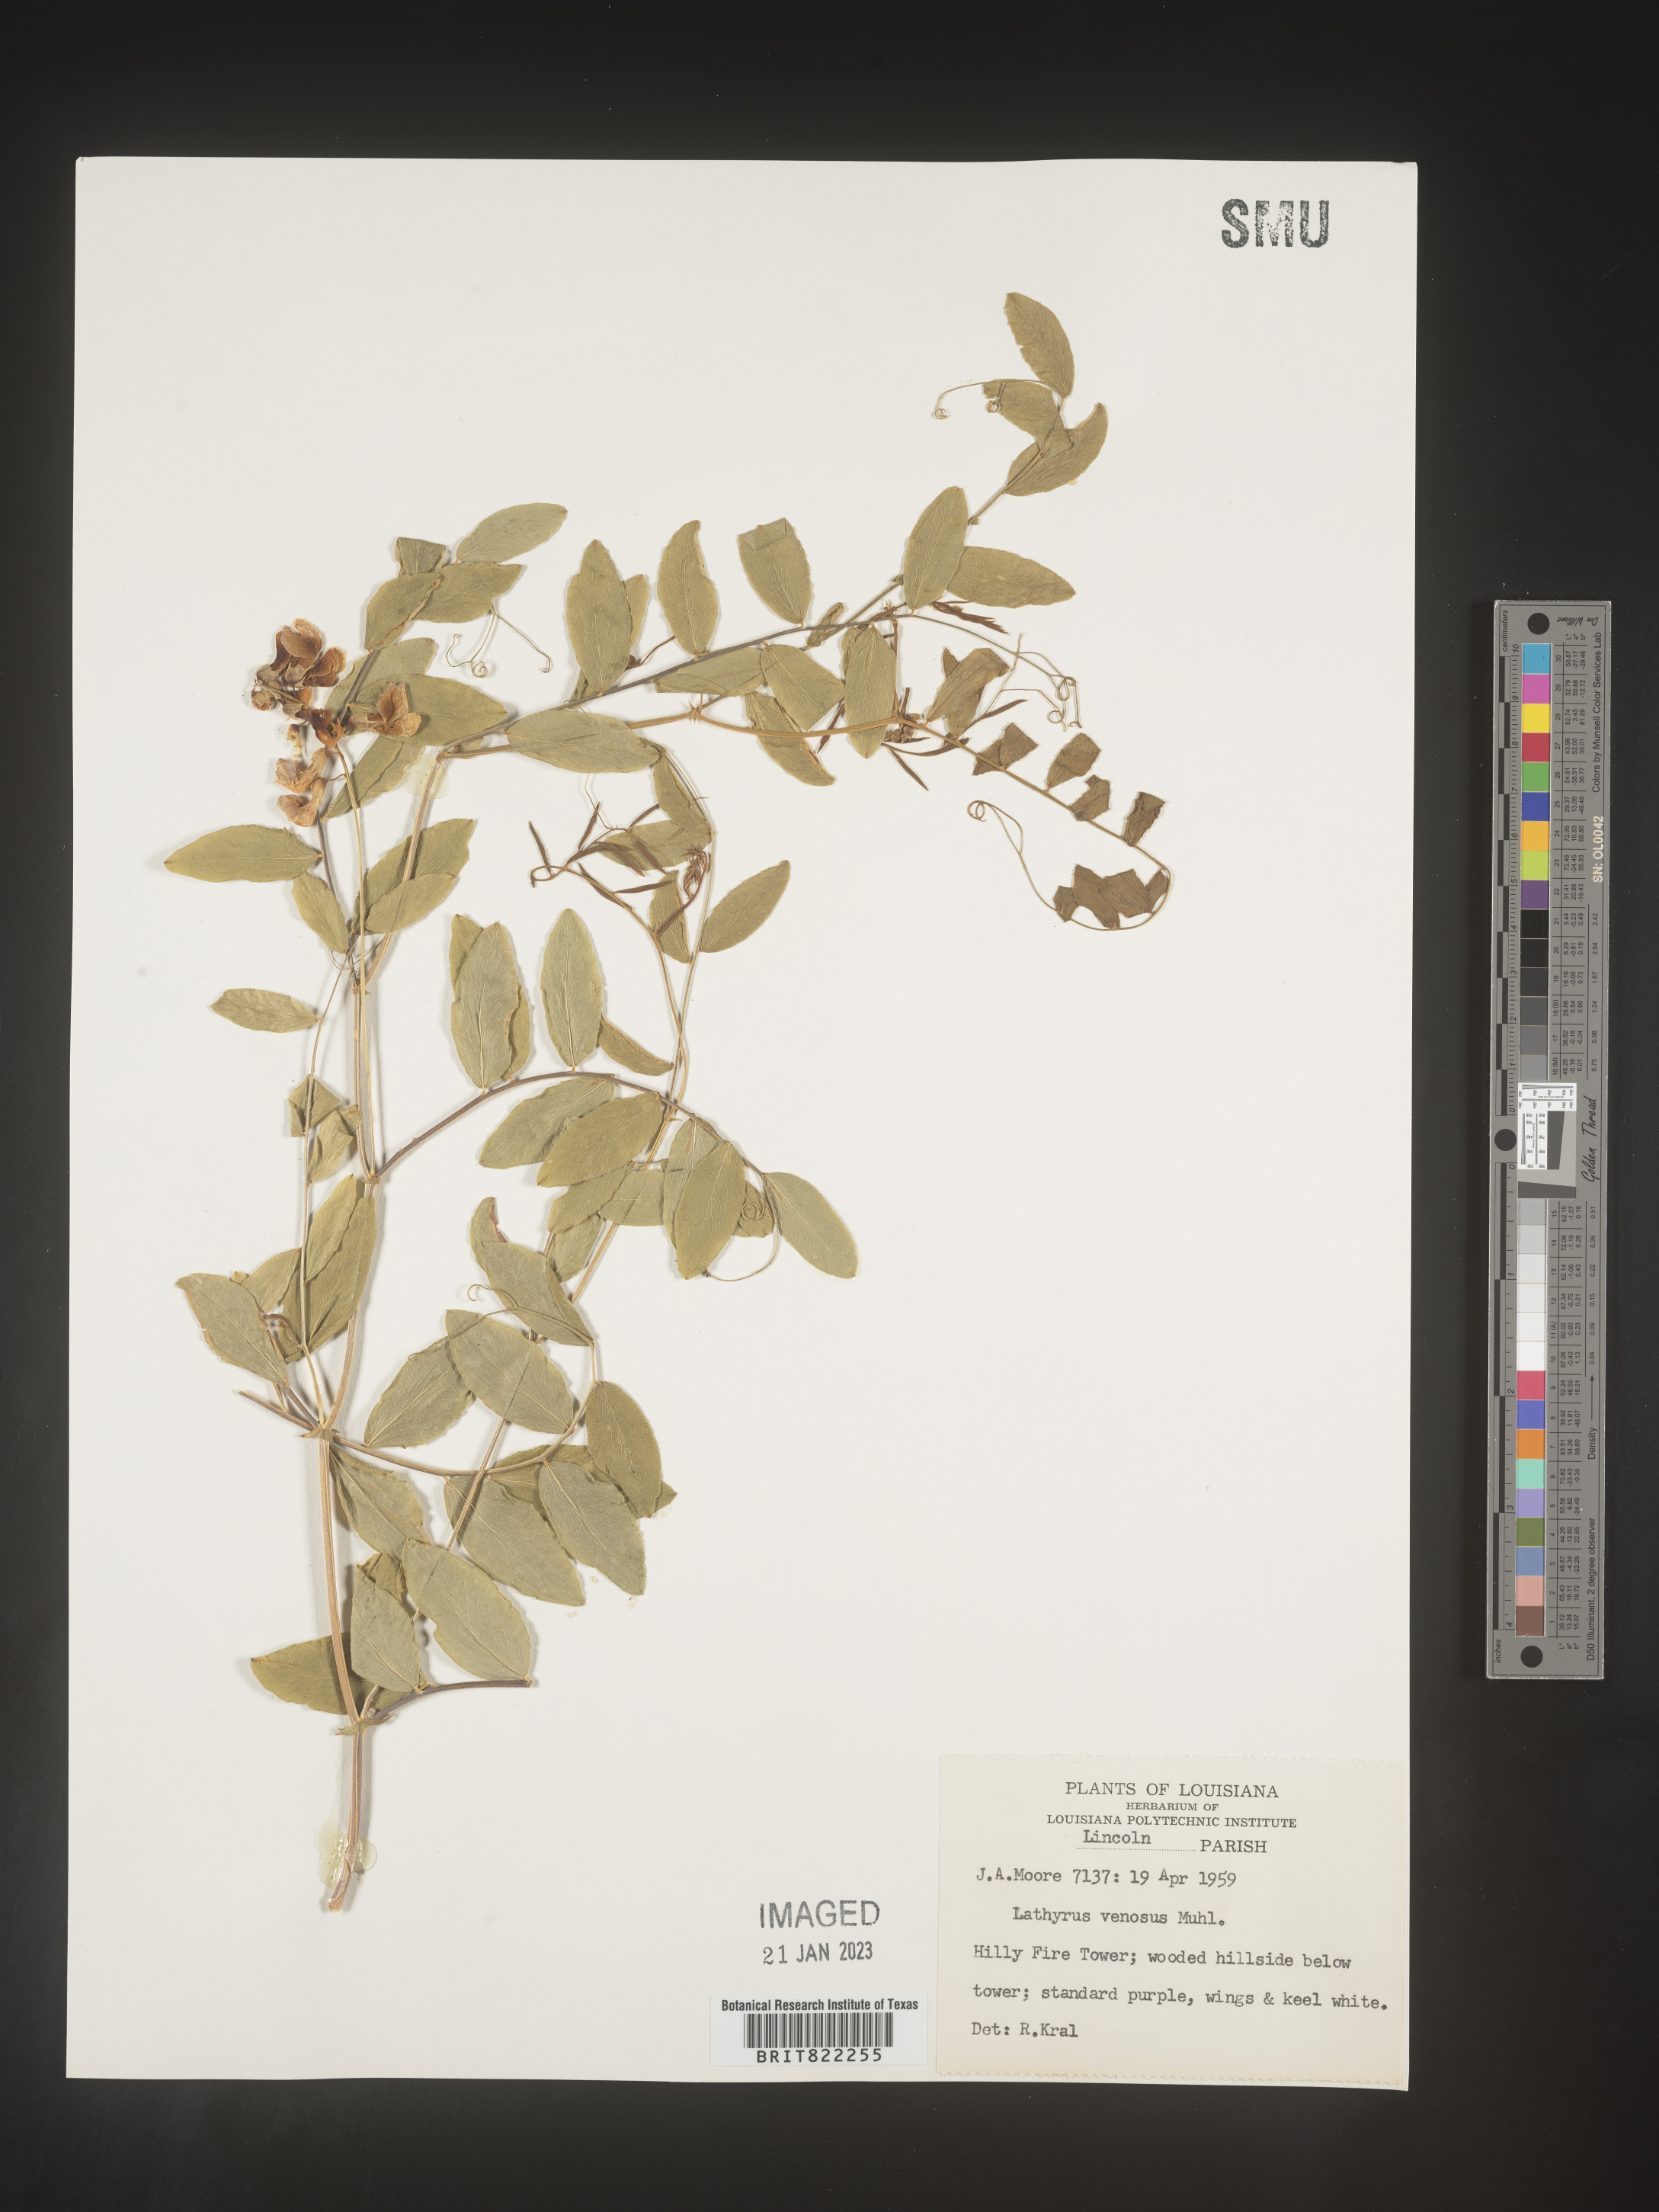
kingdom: Plantae
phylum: Tracheophyta
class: Magnoliopsida
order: Fabales
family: Fabaceae
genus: Lathyrus
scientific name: Lathyrus venosus
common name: Forest-pea
